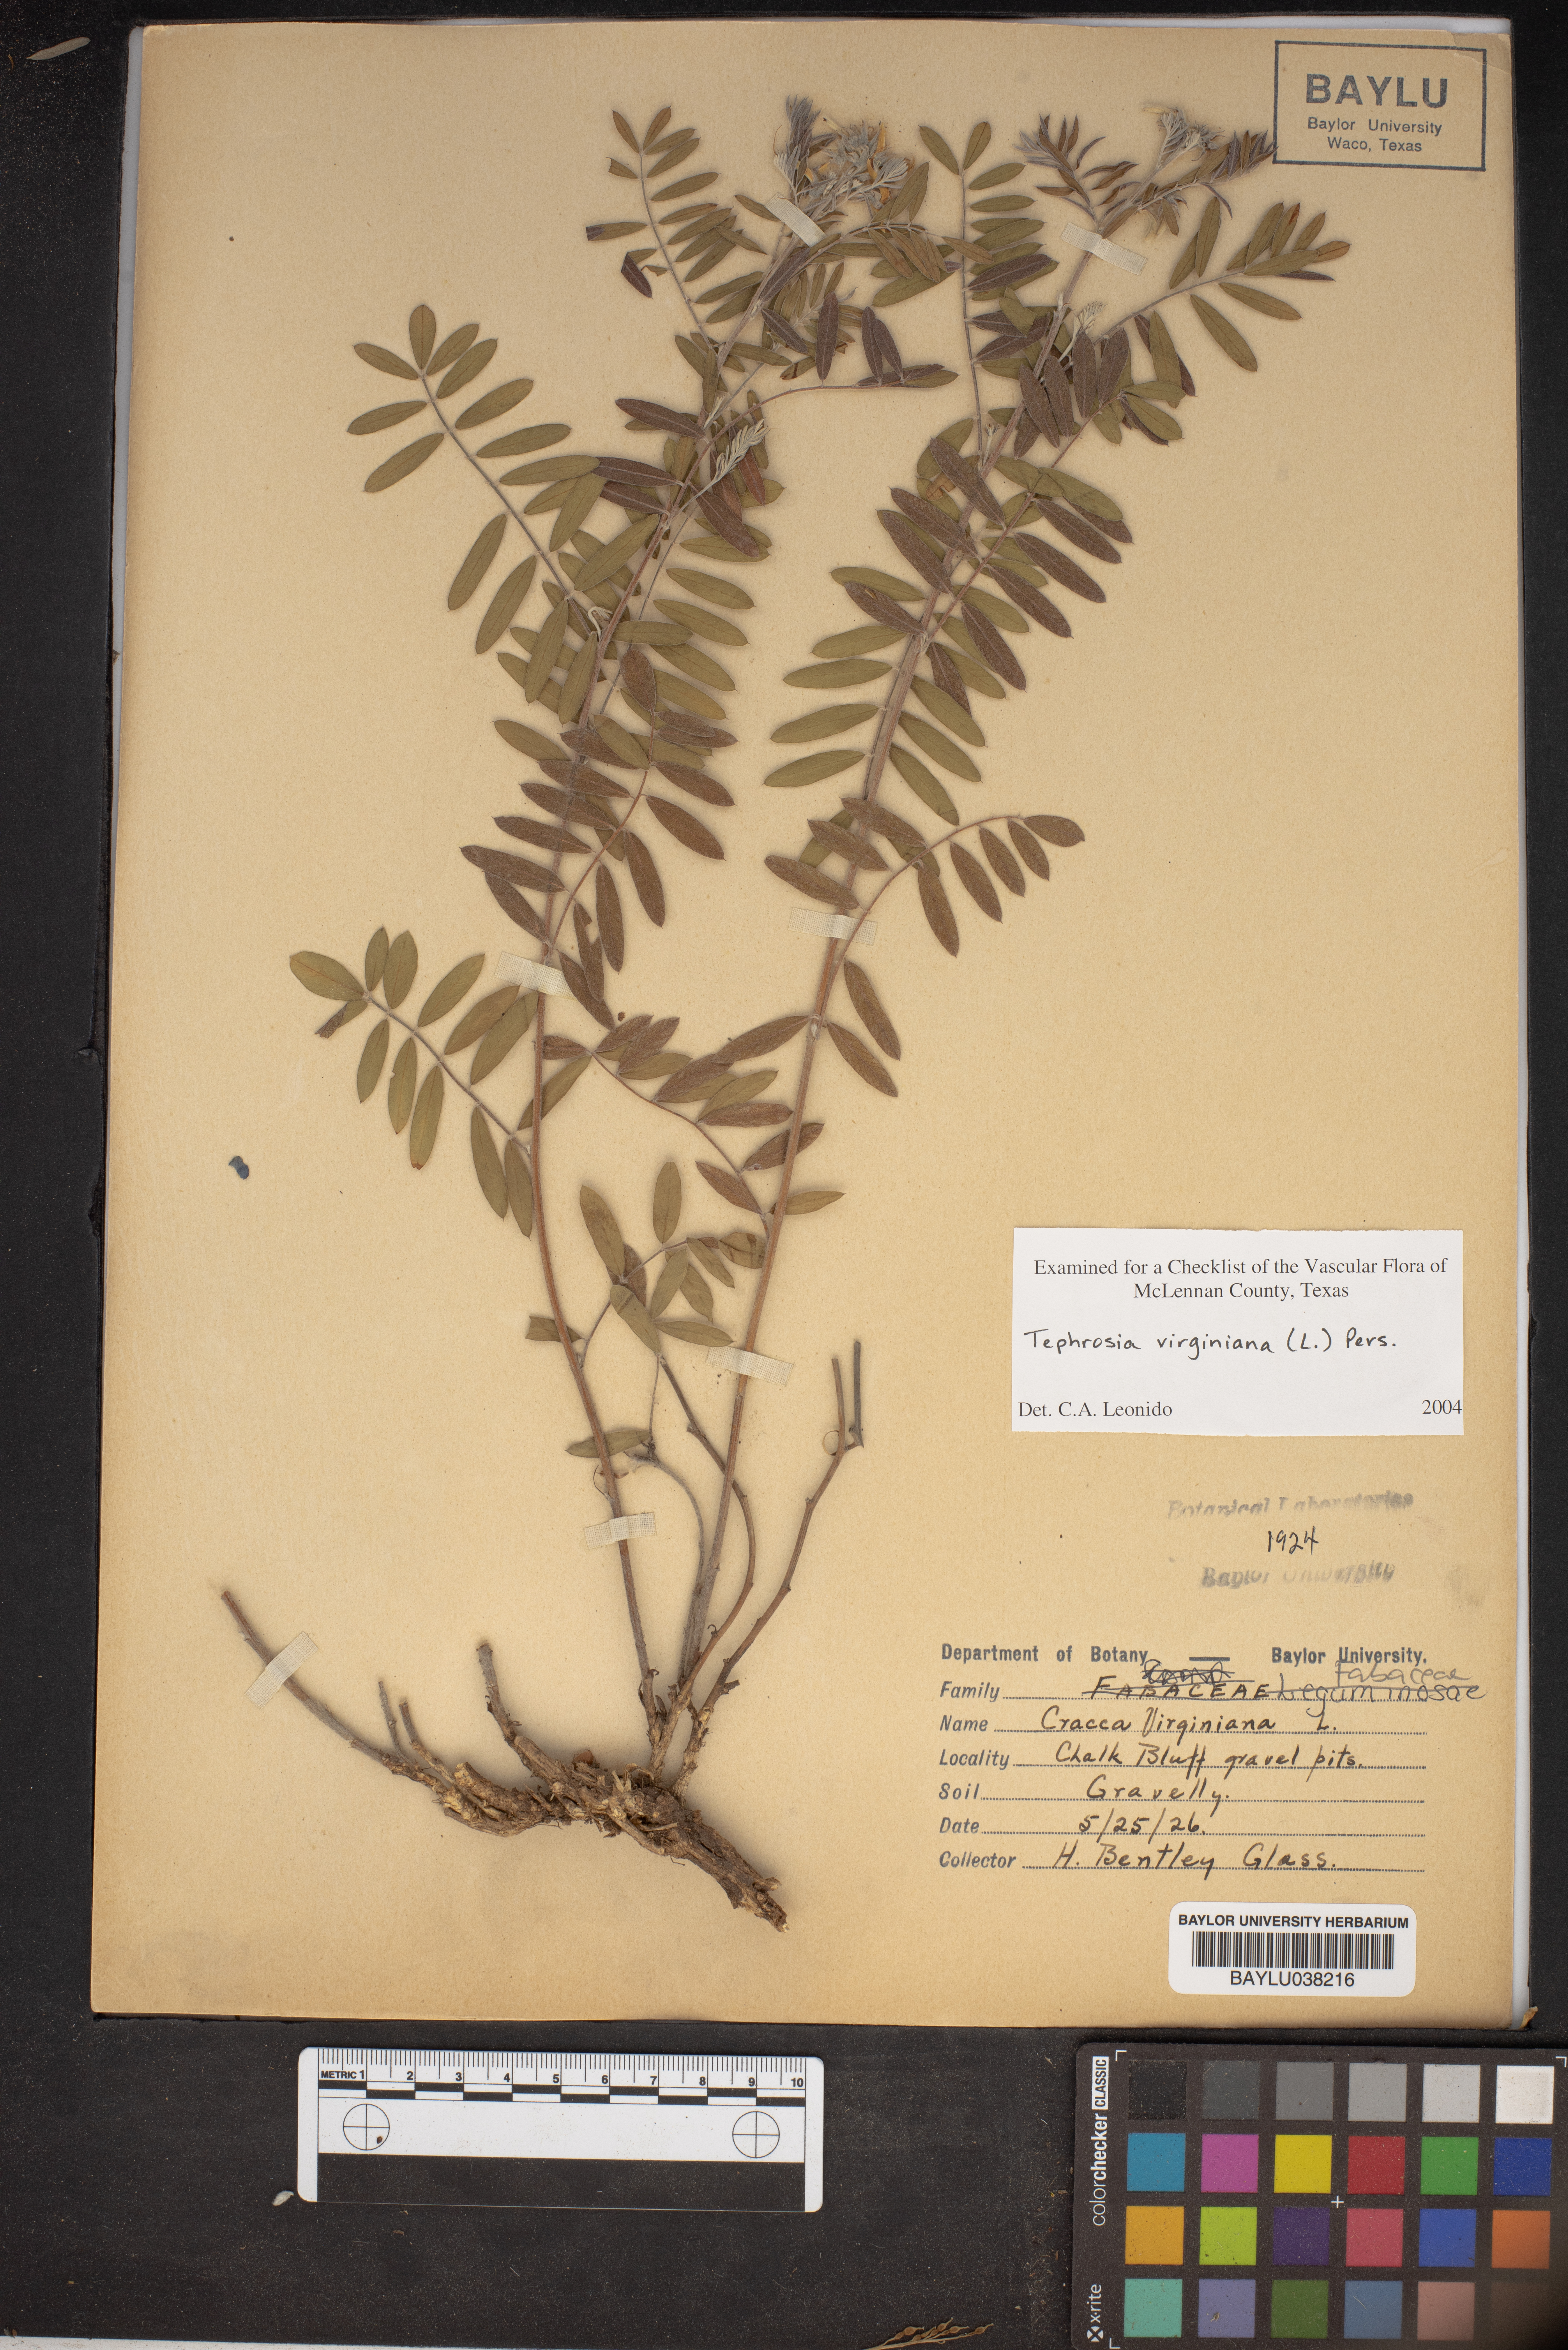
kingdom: Plantae
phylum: Tracheophyta
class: Magnoliopsida
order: Fabales
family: Fabaceae
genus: Tephrosia
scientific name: Tephrosia virginiana
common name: Rabbit-pea
